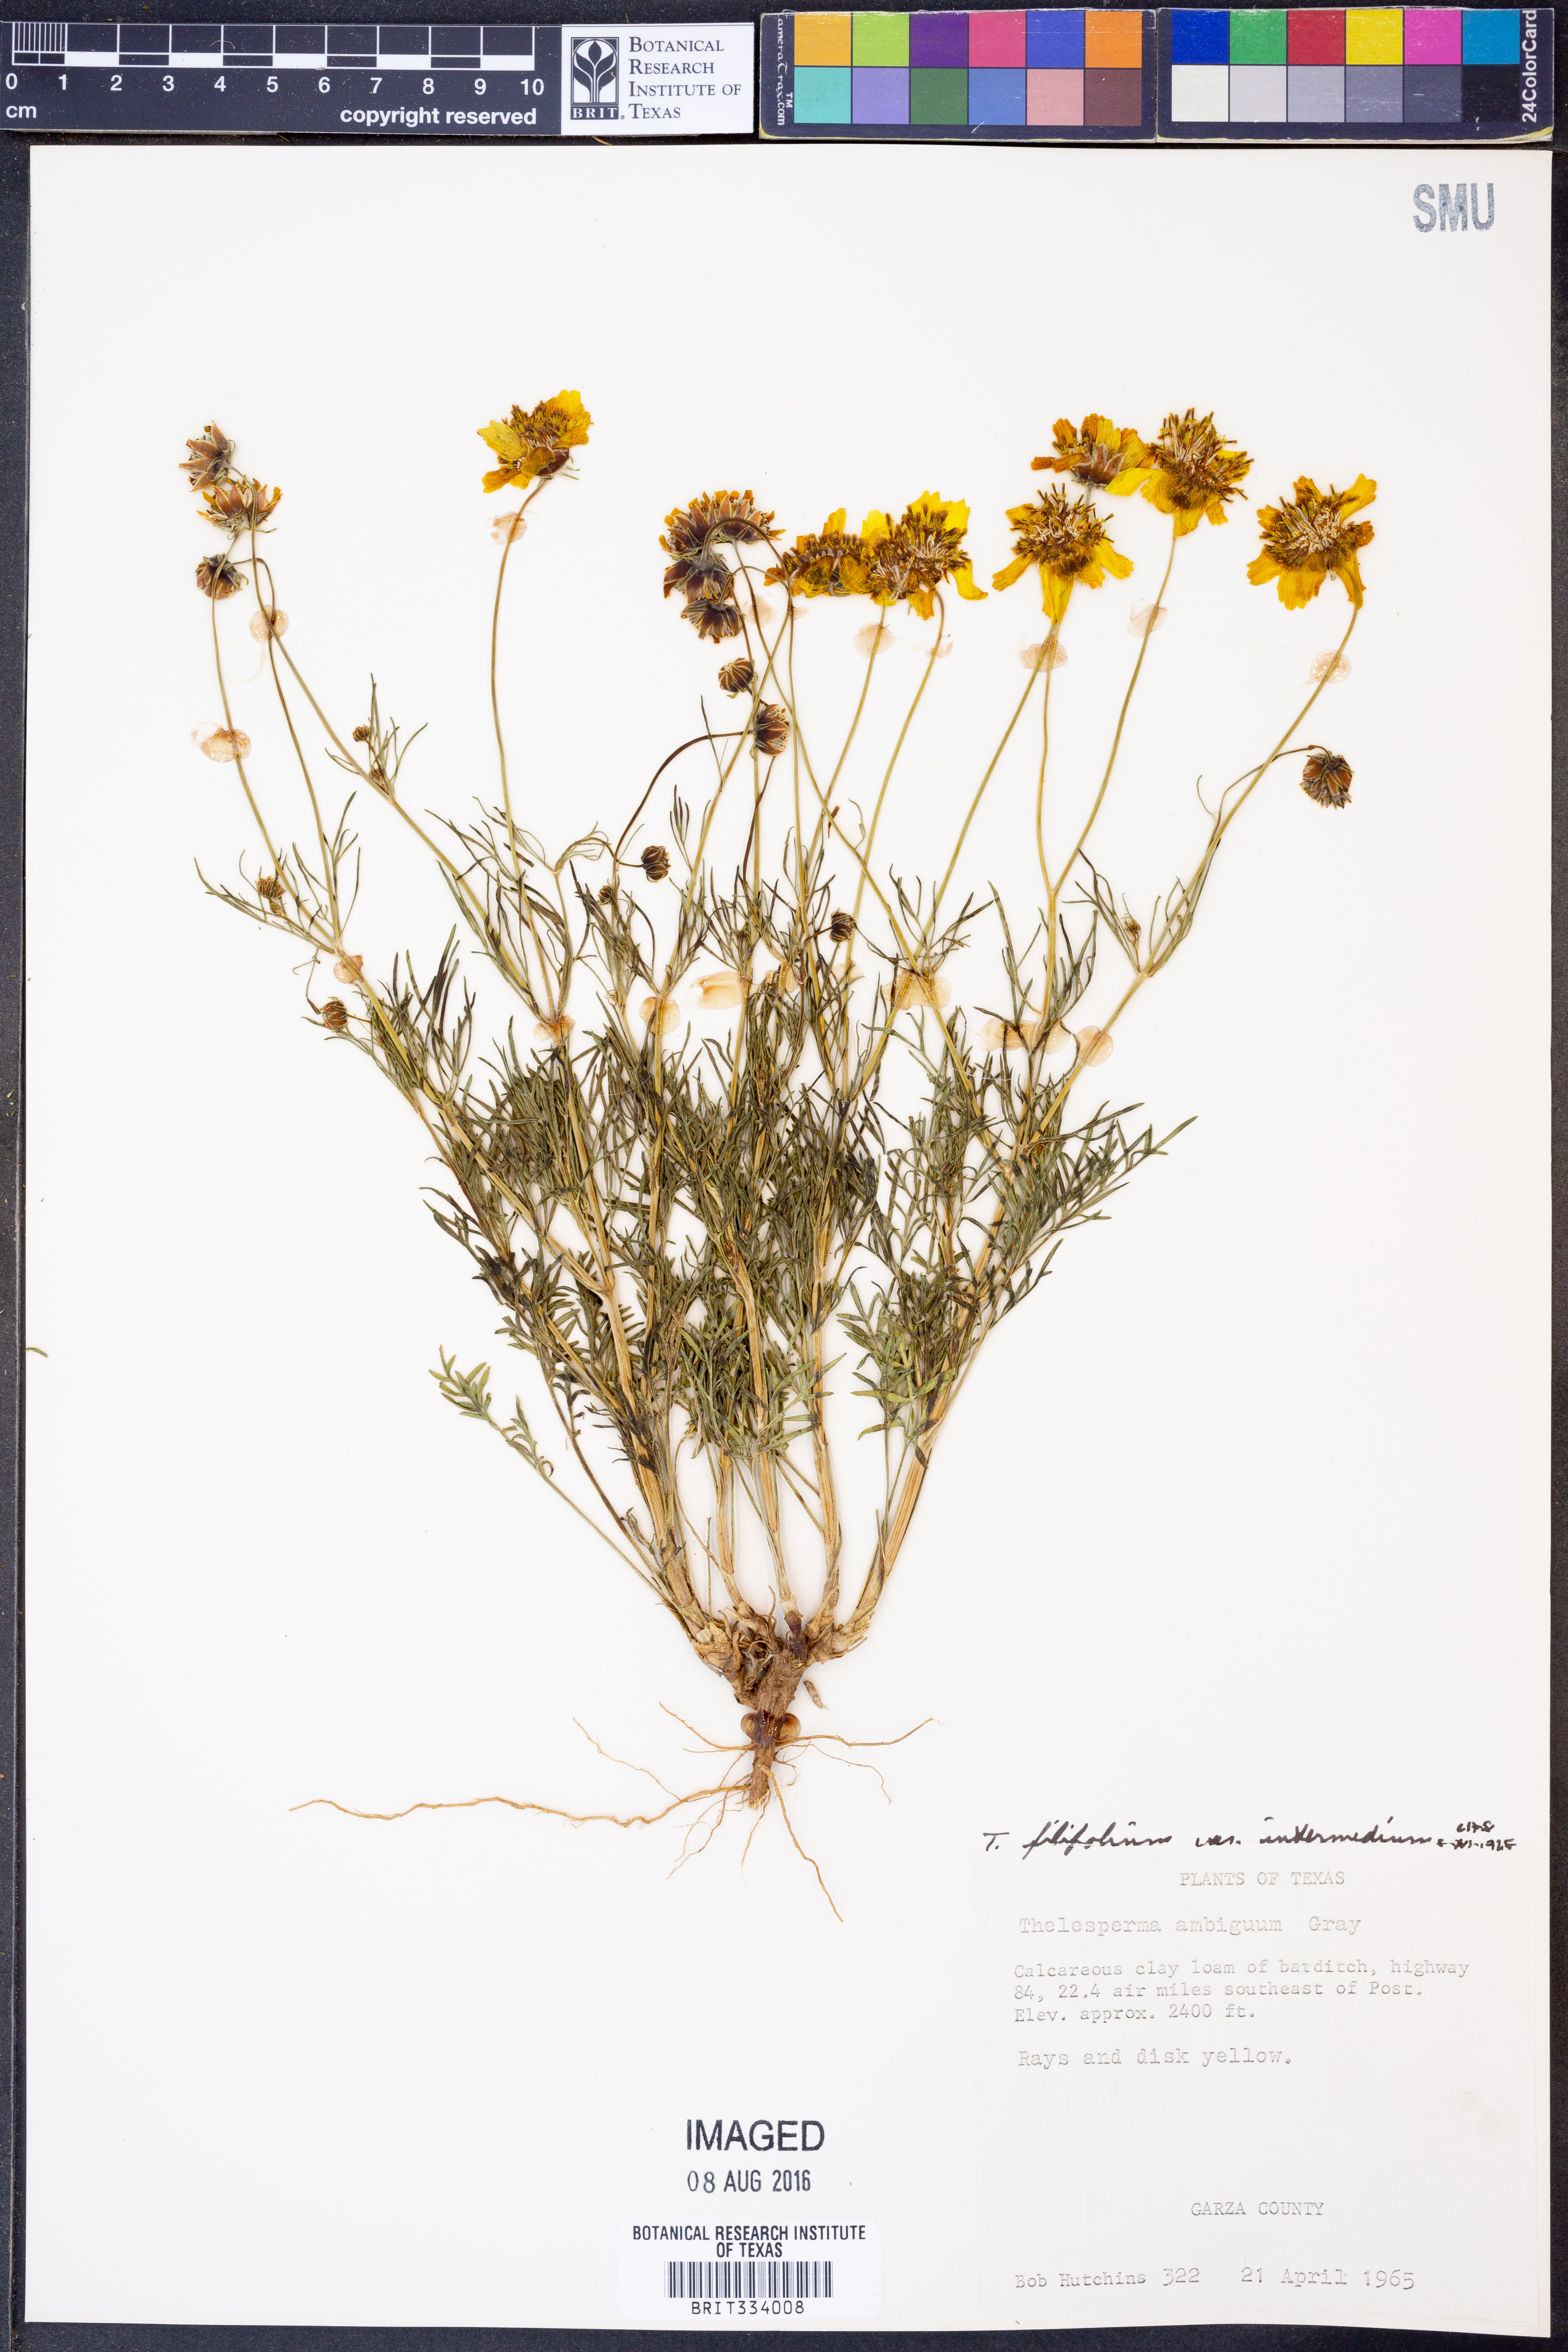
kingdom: Plantae
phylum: Tracheophyta
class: Magnoliopsida
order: Asterales
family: Asteraceae
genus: Thelesperma
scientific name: Thelesperma filifolium
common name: Stiff greenthread
